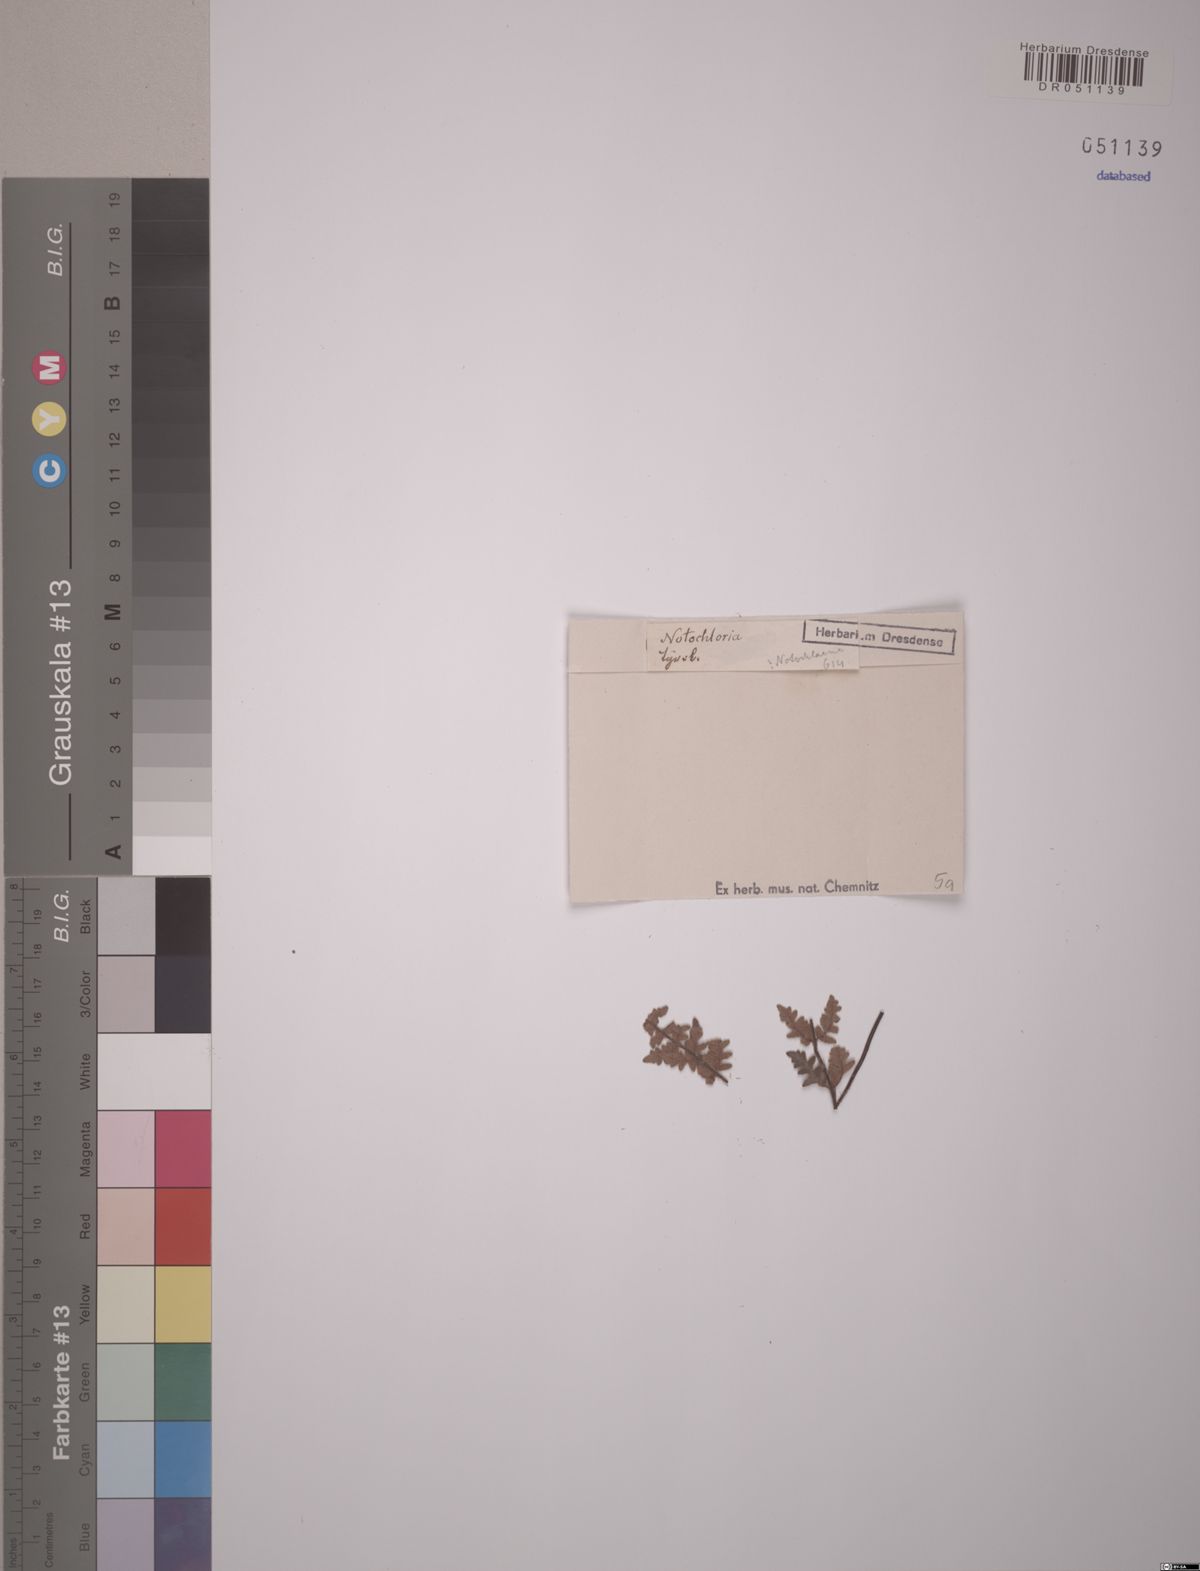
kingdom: Plantae
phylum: Tracheophyta
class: Polypodiopsida
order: Polypodiales
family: Pteridaceae
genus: Notholaena
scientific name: Notholaena
